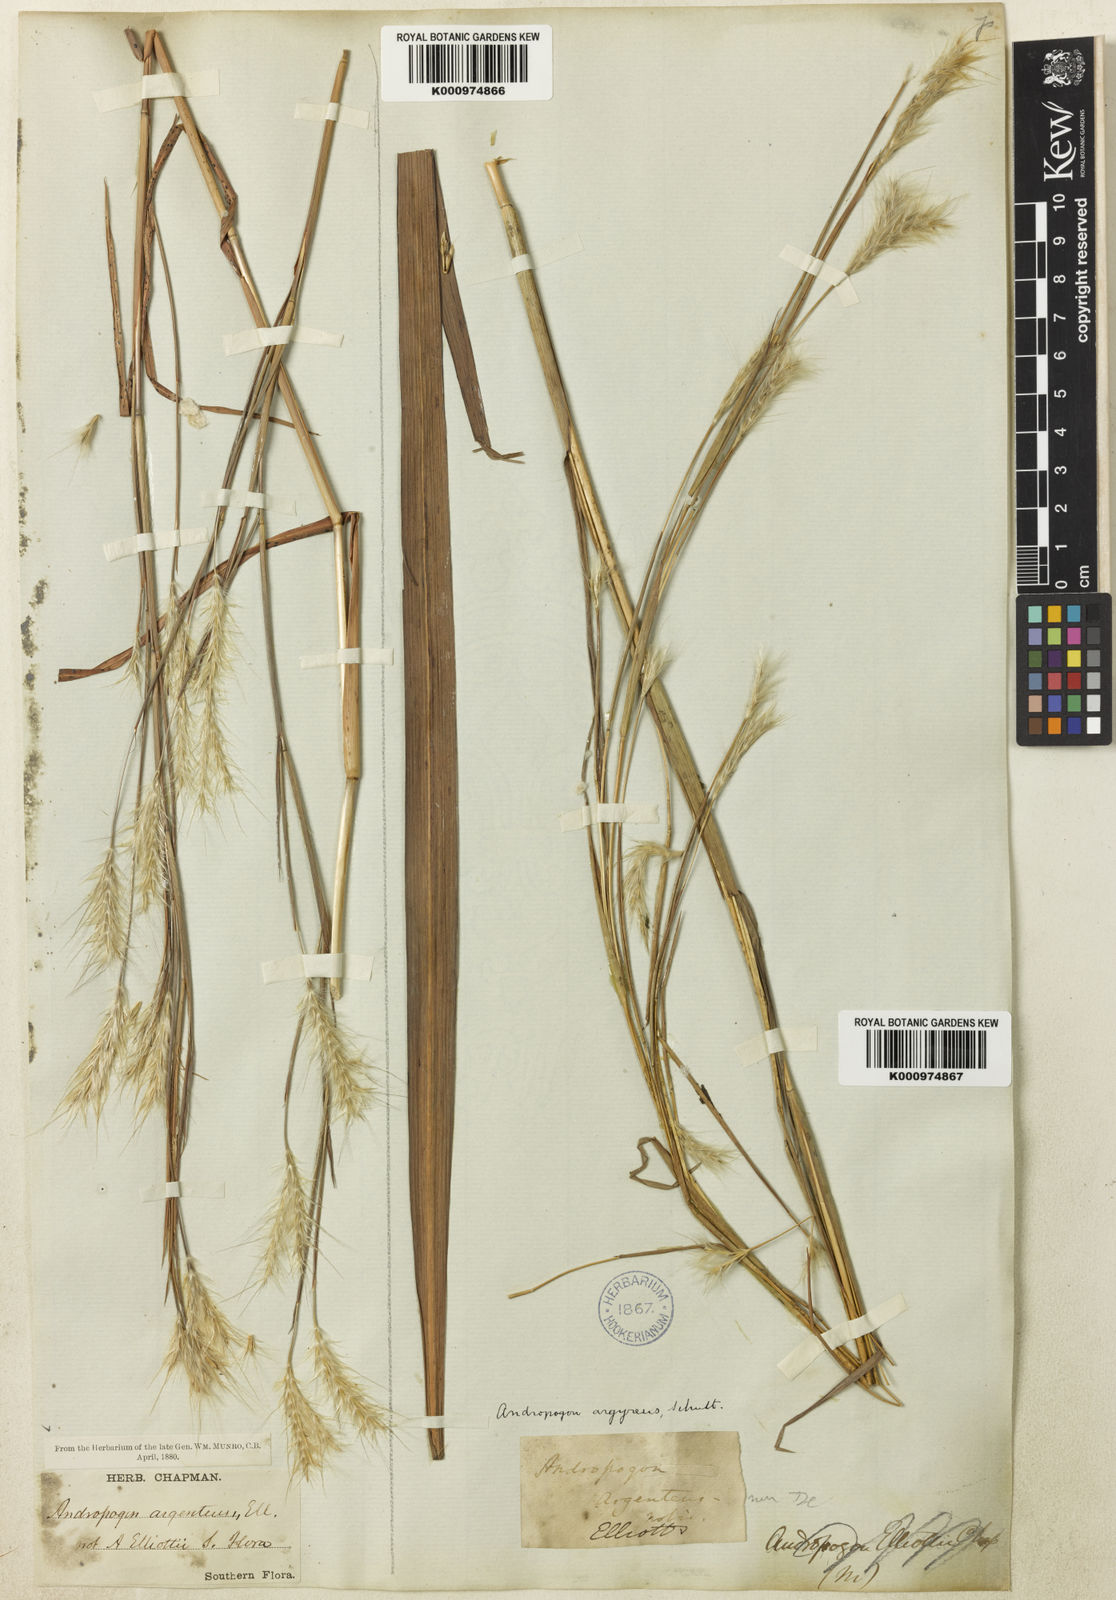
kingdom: Plantae
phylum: Tracheophyta
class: Liliopsida
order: Poales
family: Poaceae
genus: Andropogon
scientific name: Andropogon gyrans
